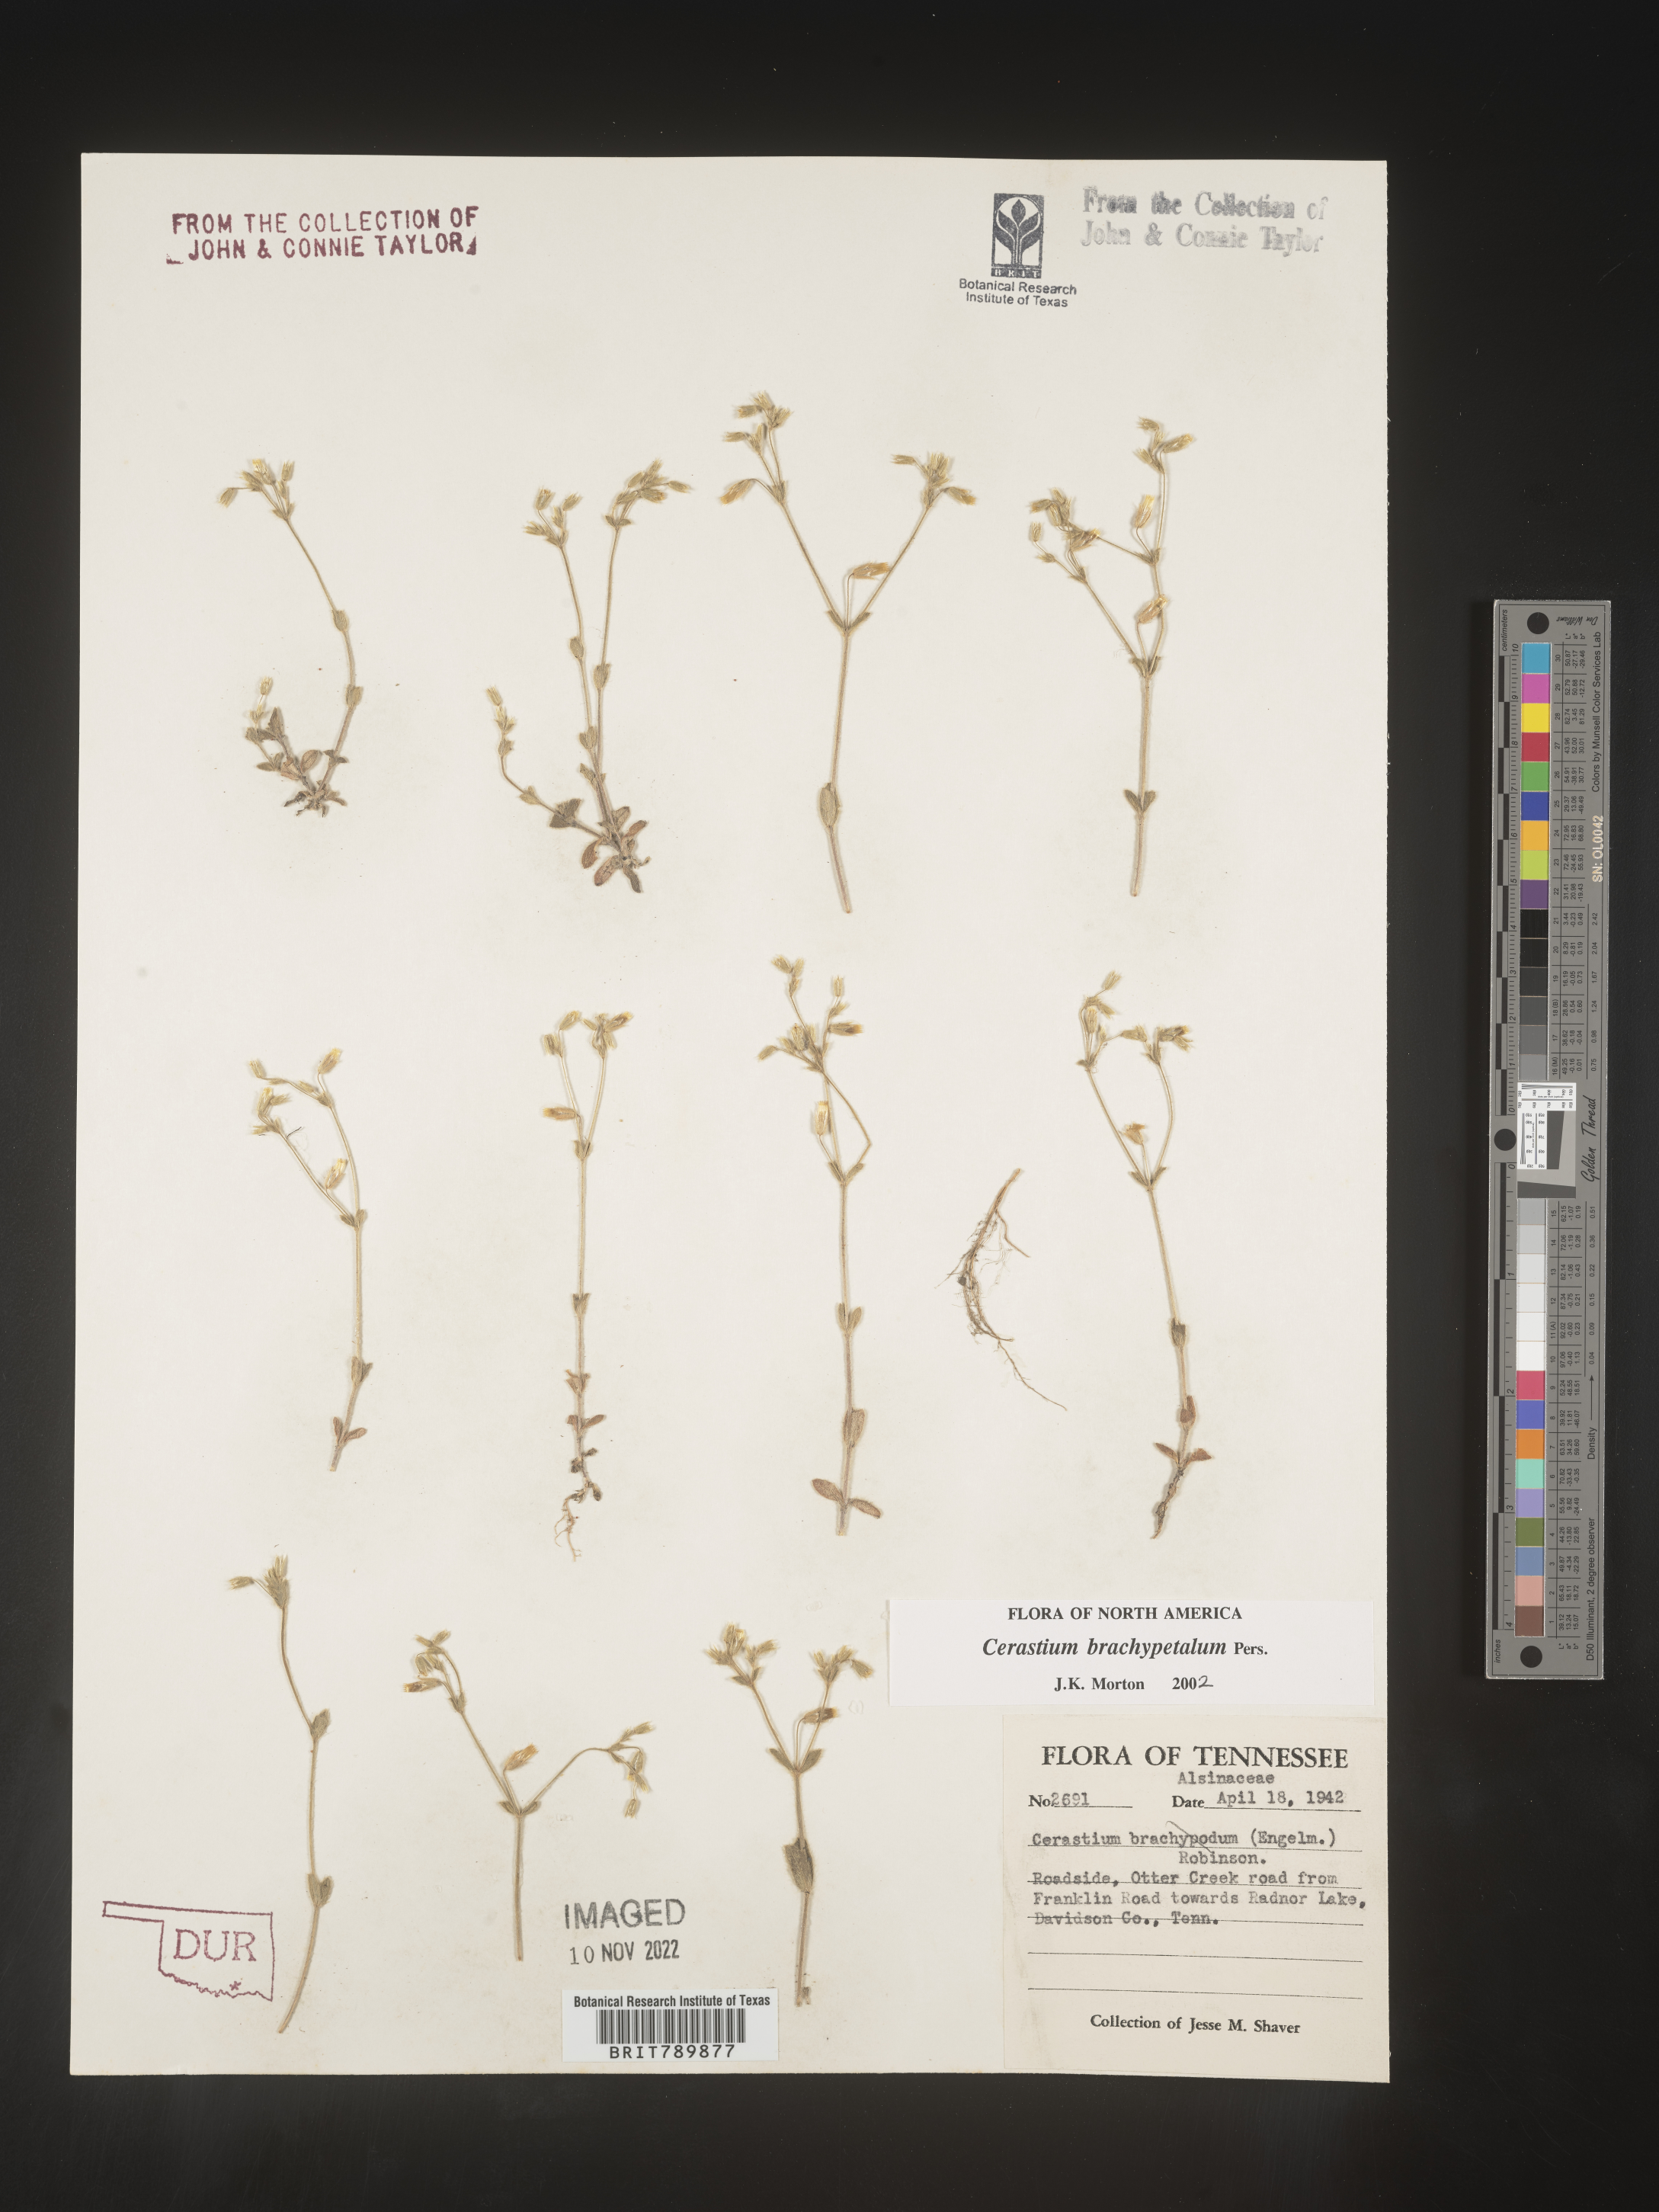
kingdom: Plantae
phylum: Tracheophyta
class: Magnoliopsida
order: Caryophyllales
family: Caryophyllaceae
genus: Cerastium
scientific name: Cerastium brachypetalum
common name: Grey mouse-ear
